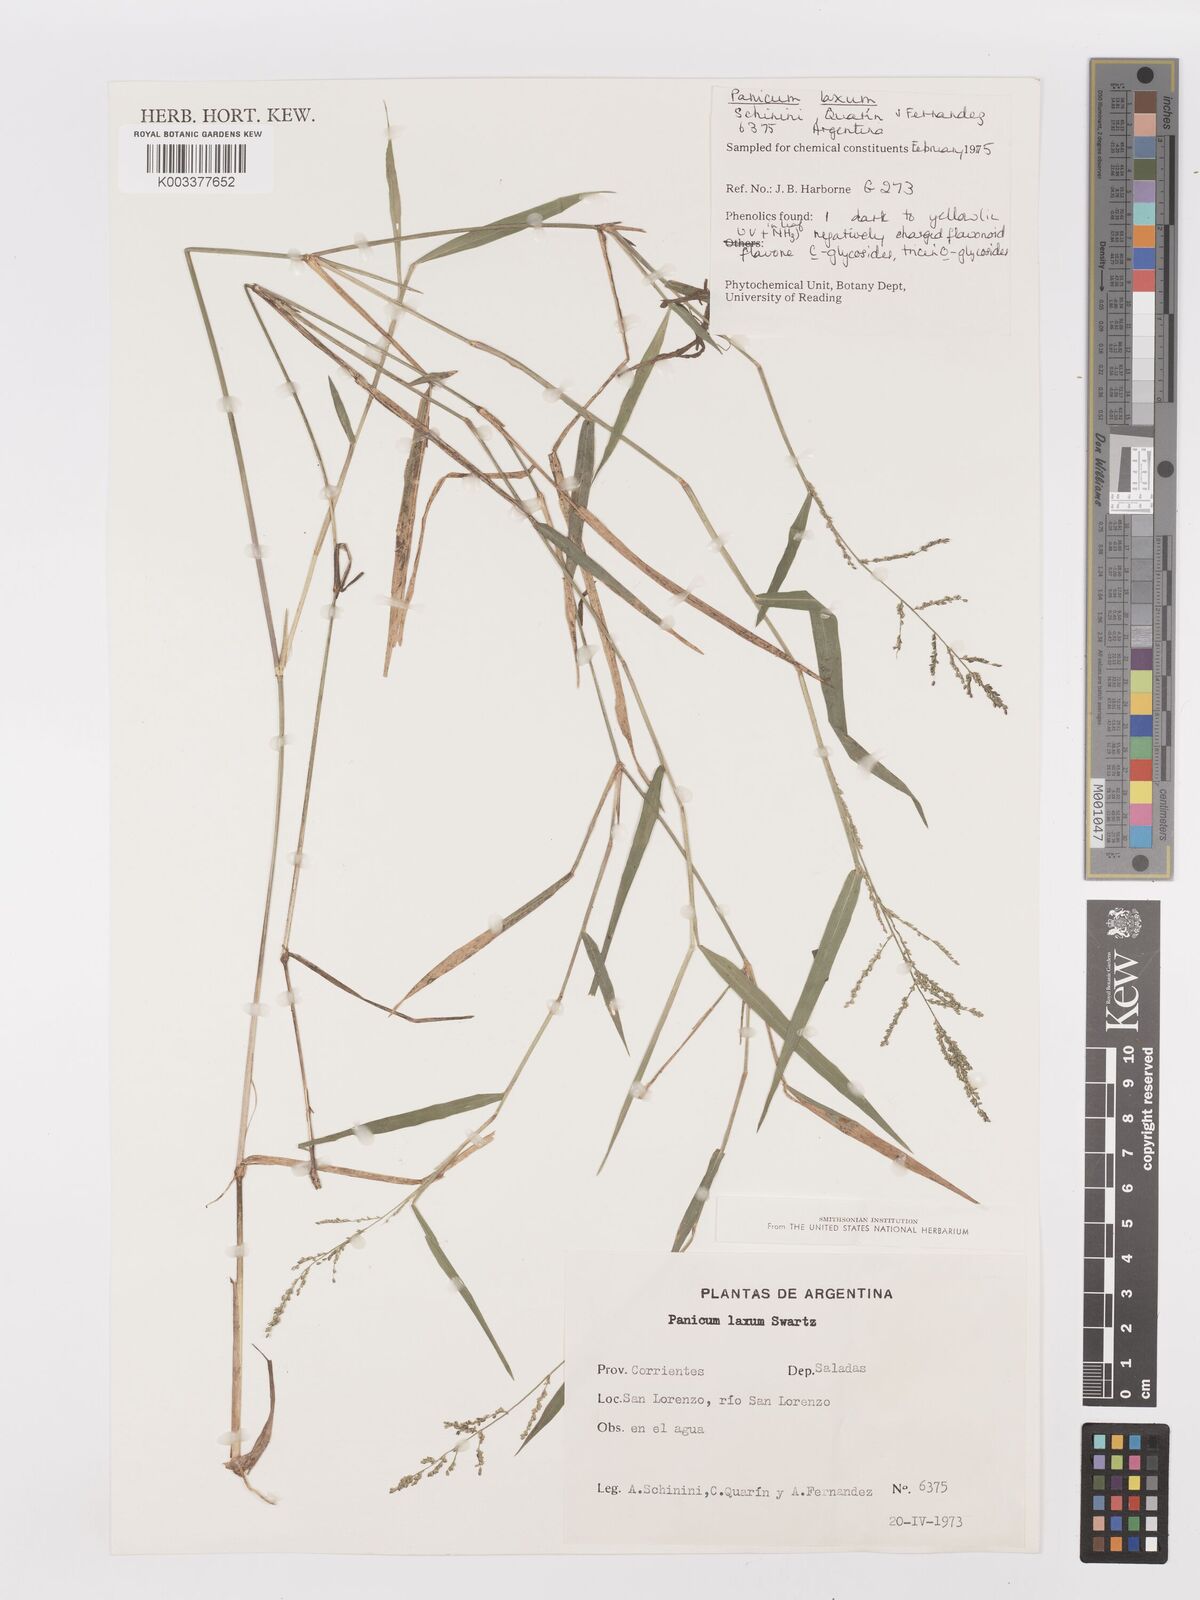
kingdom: Plantae
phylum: Tracheophyta
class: Liliopsida
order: Poales
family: Poaceae
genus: Steinchisma
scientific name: Steinchisma laxum
